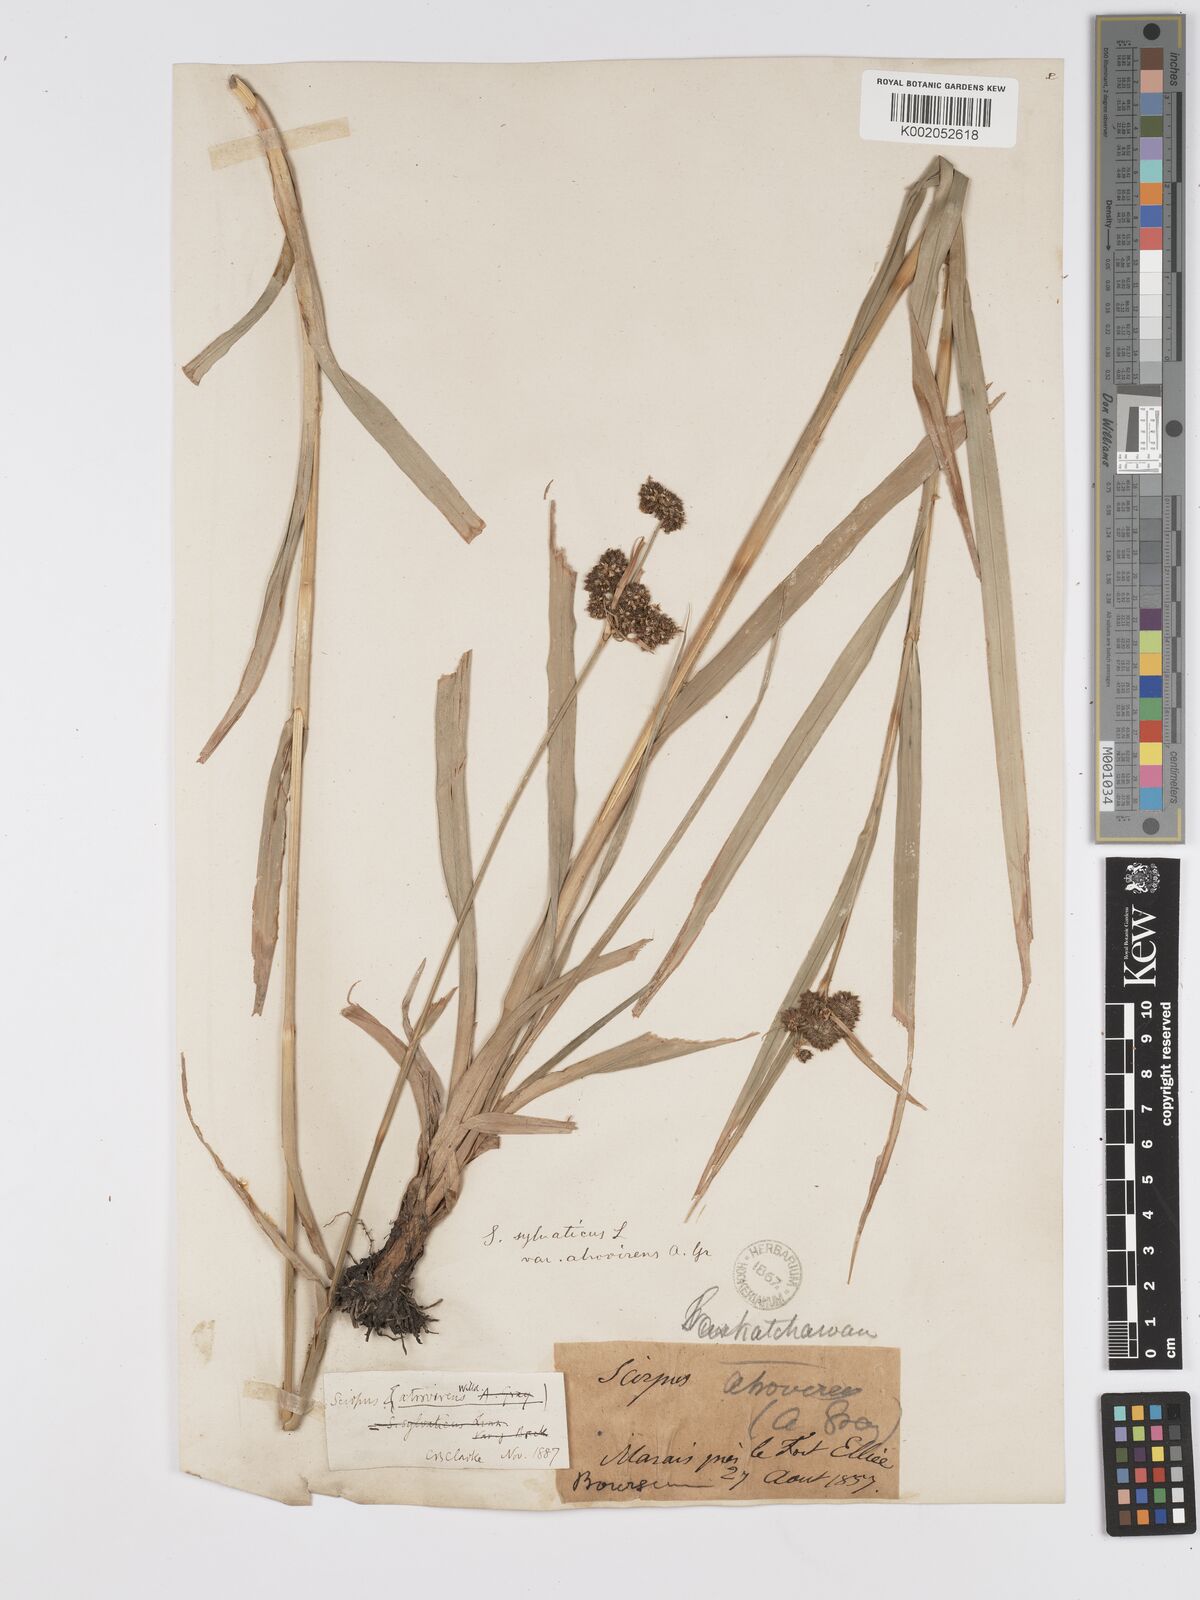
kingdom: Plantae
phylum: Tracheophyta
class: Liliopsida
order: Poales
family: Cyperaceae
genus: Scirpus
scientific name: Scirpus atrovirens
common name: Black bulrush
